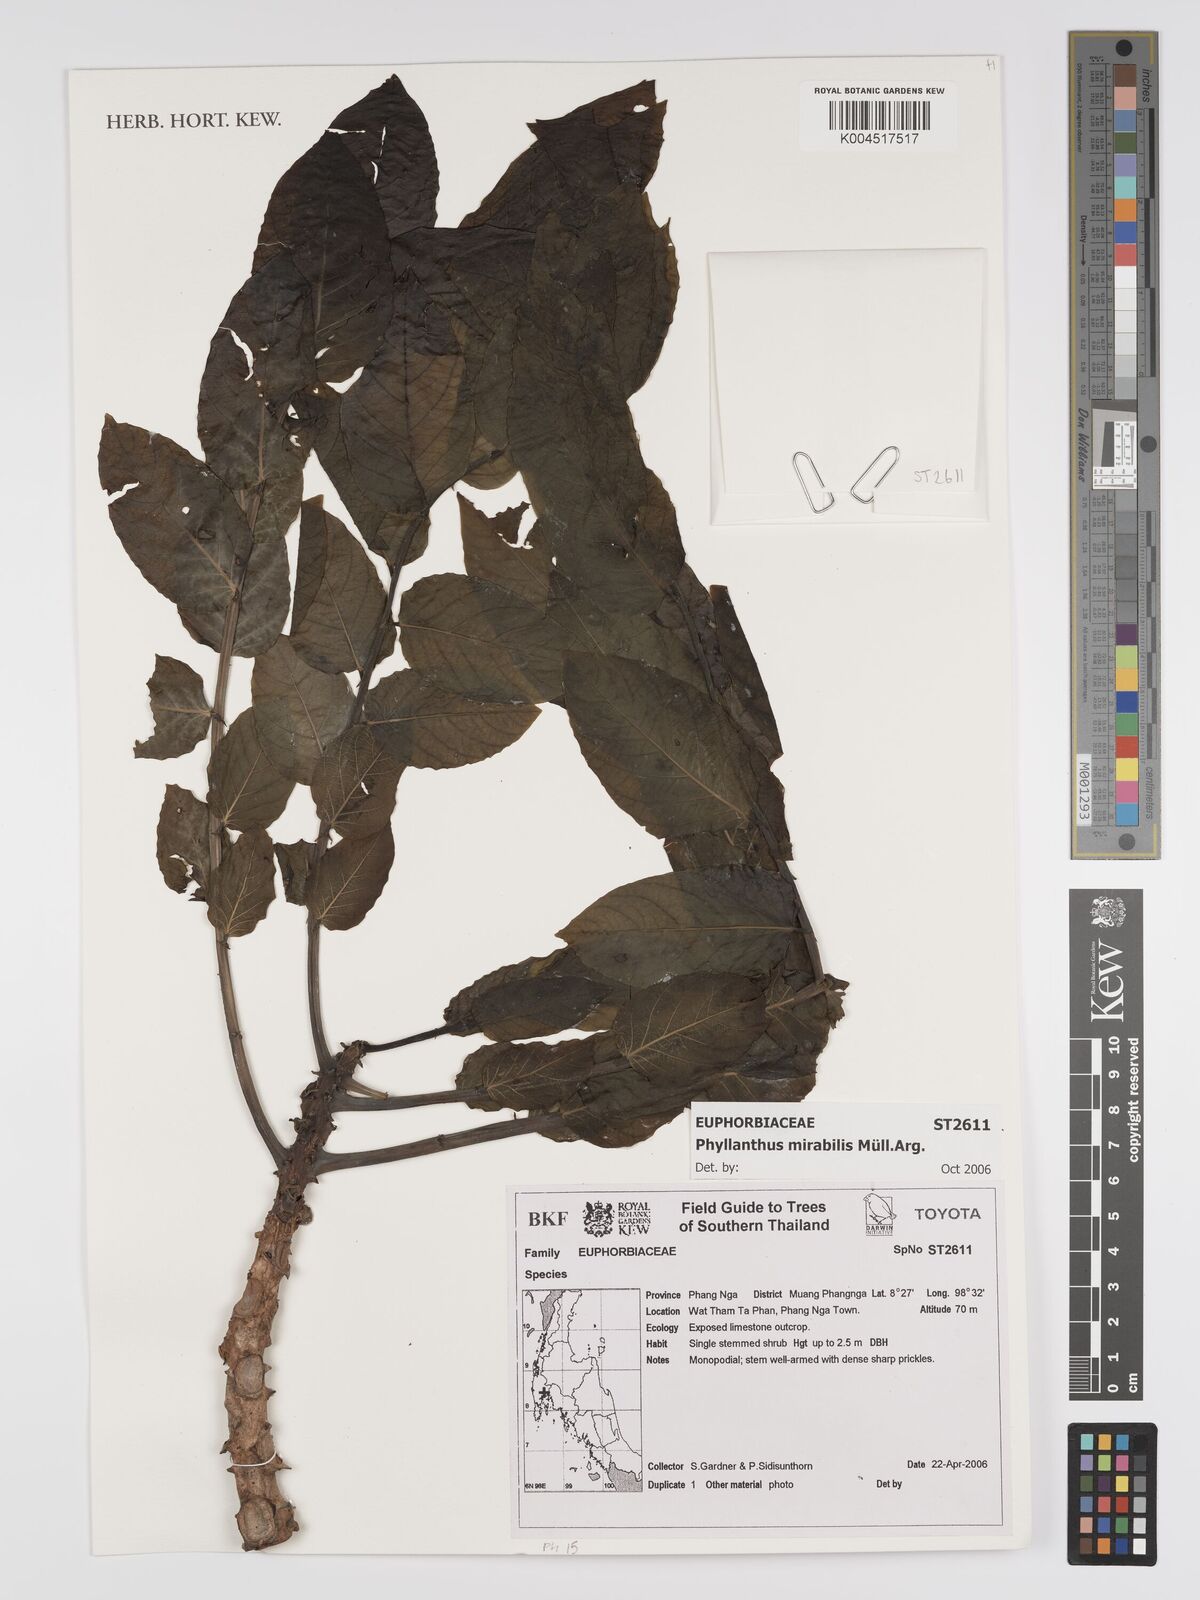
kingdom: Plantae
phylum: Tracheophyta
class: Magnoliopsida
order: Malpighiales
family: Phyllanthaceae
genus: Phyllanthus
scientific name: Phyllanthus mirabilis
